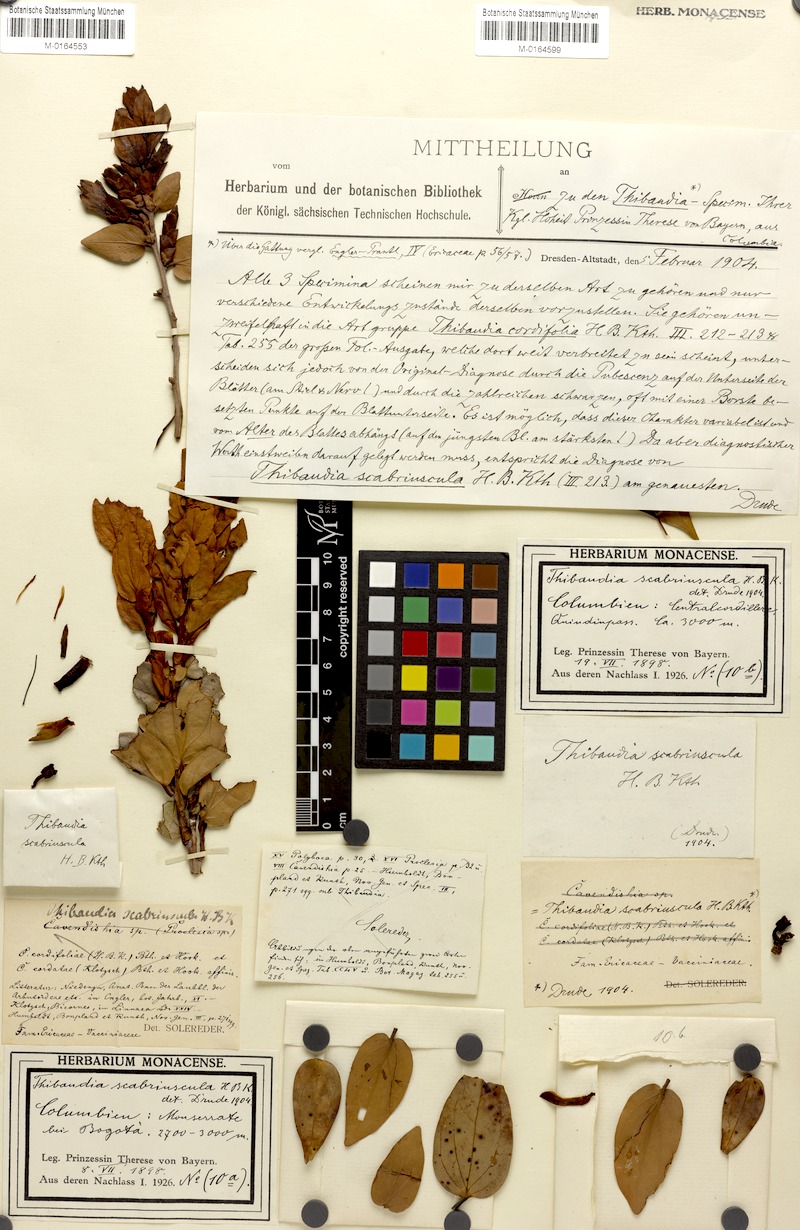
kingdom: Plantae
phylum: Tracheophyta
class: Magnoliopsida
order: Ericales
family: Ericaceae
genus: Cavendishia
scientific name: Cavendishia bracteata
